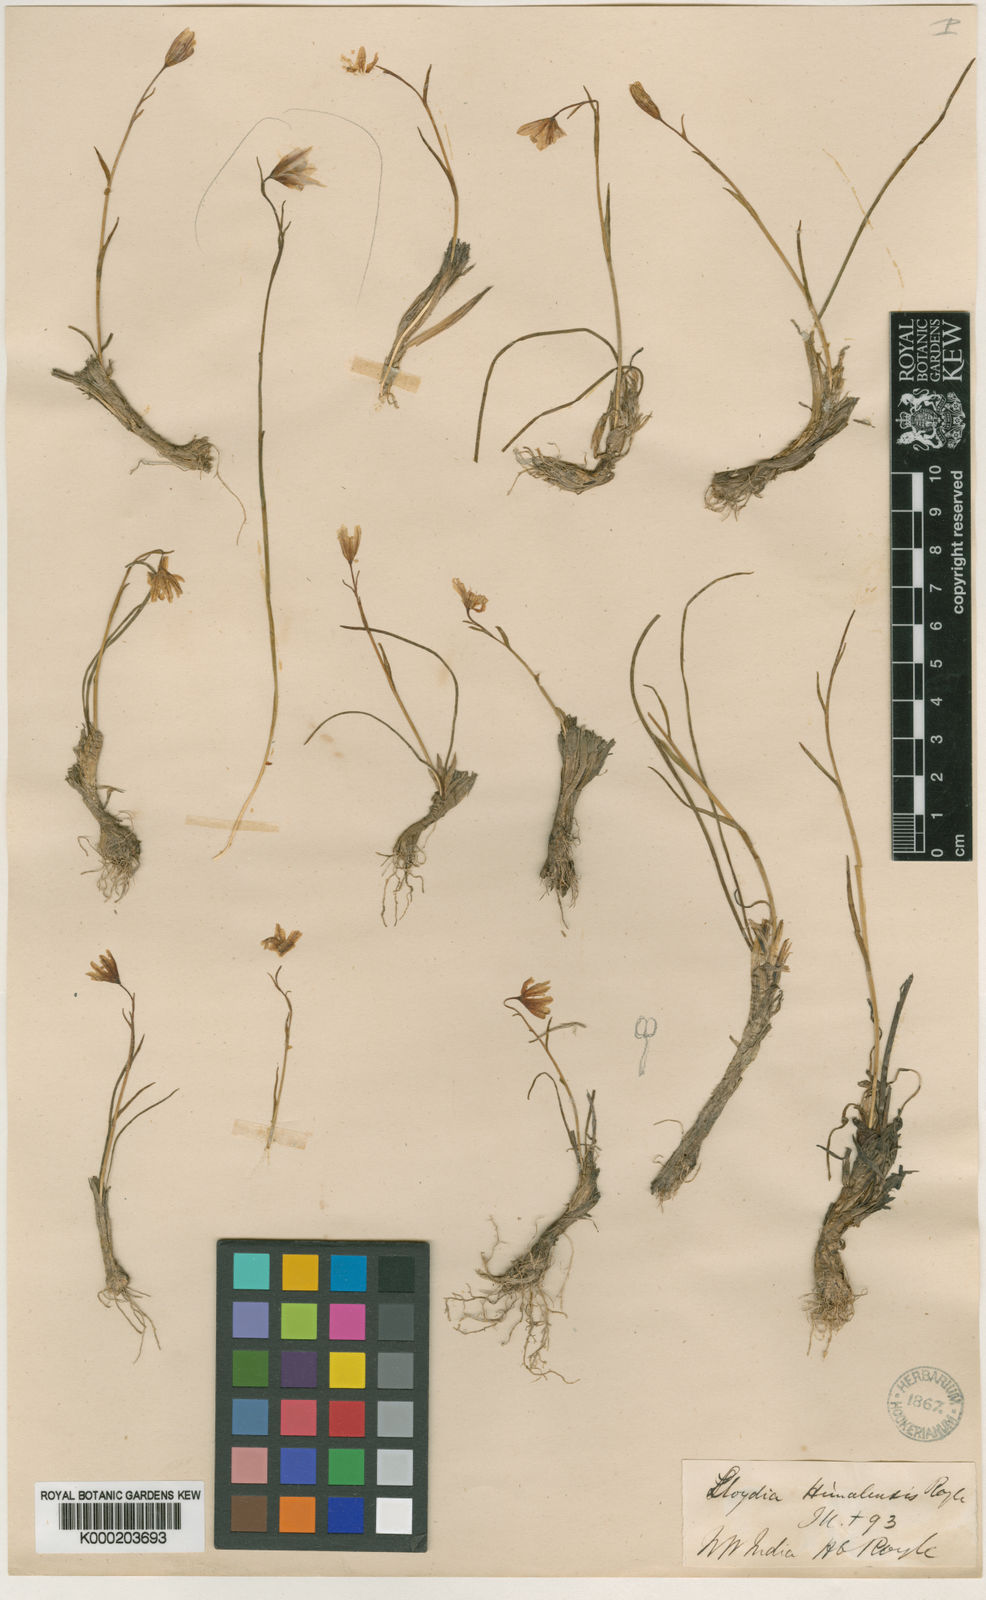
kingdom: Plantae
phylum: Tracheophyta
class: Liliopsida
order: Liliales
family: Liliaceae
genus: Gagea
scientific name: Gagea serotina
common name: Snowdon lily
